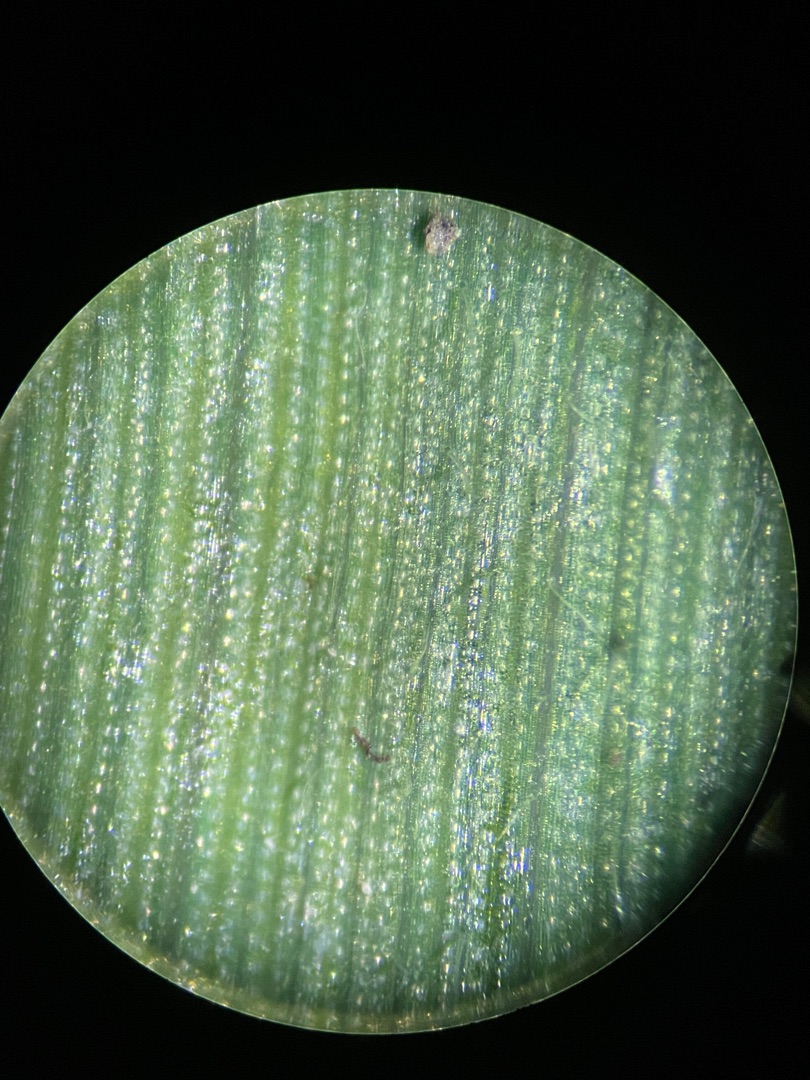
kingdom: Plantae
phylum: Tracheophyta
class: Liliopsida
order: Poales
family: Poaceae
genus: Elymus
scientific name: Elymus repens
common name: Almindelig kvik
